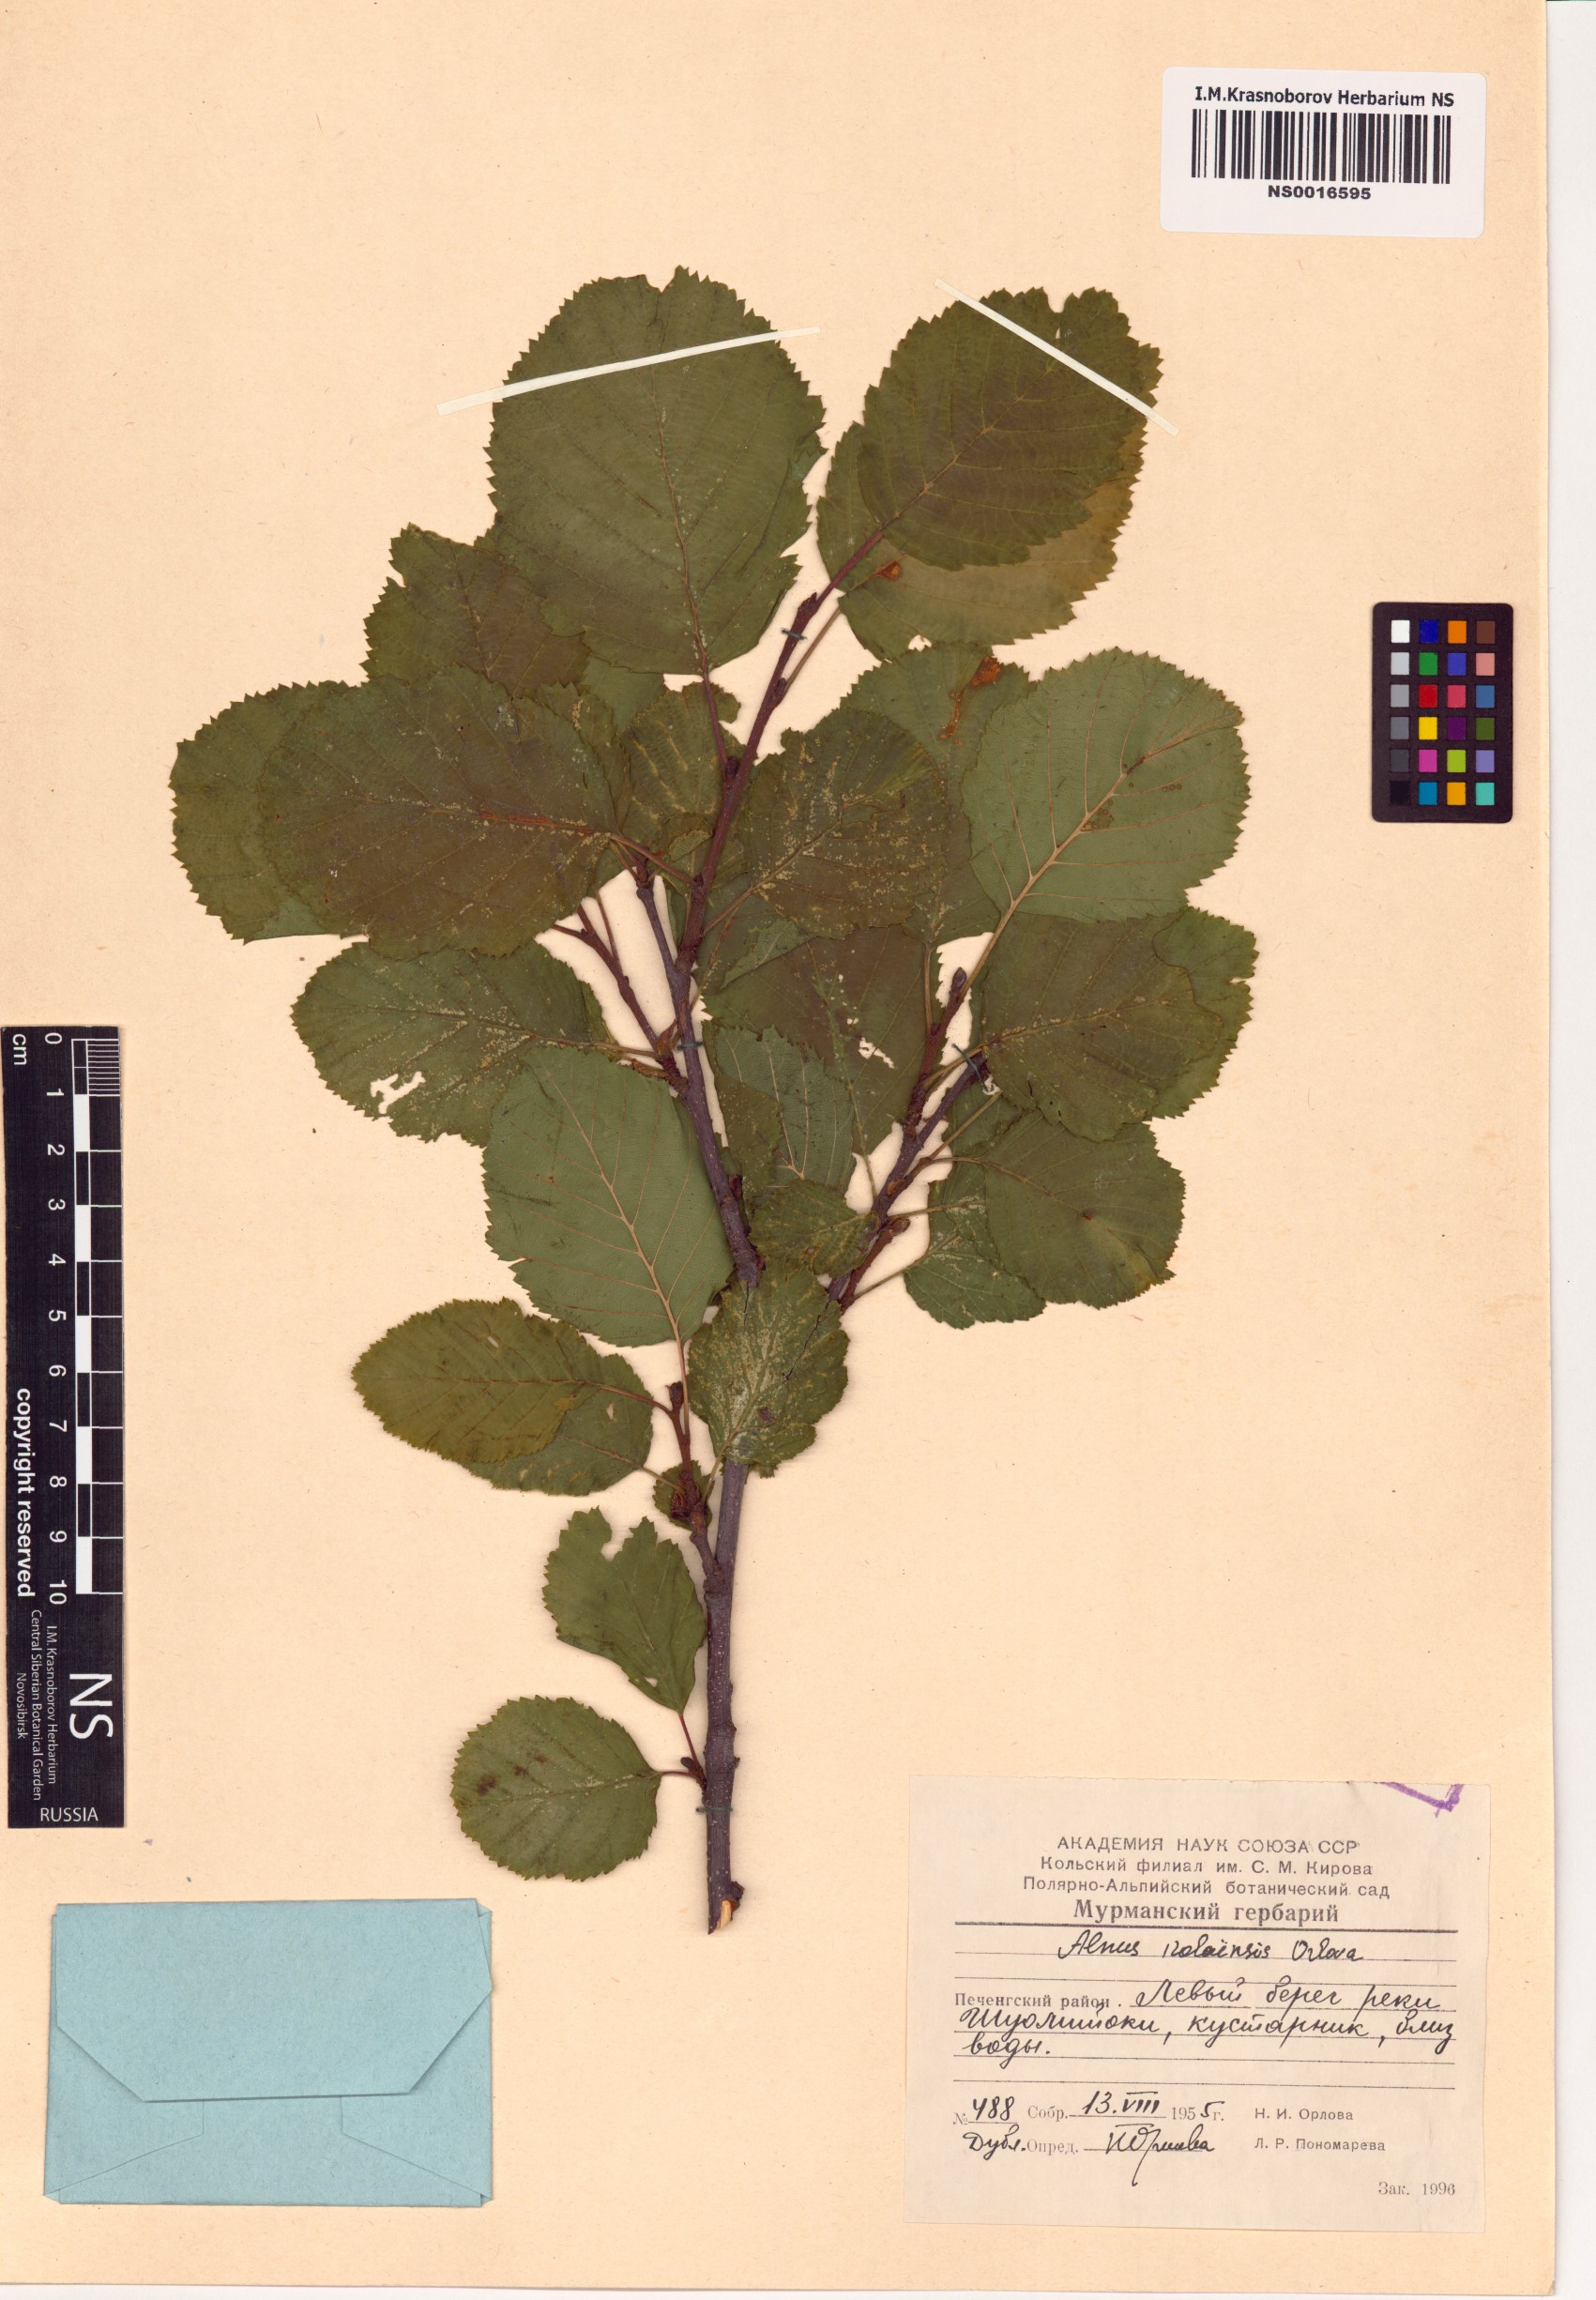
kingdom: Plantae
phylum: Tracheophyta
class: Magnoliopsida
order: Fagales
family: Betulaceae
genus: Alnus
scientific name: Alnus incana
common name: Grey alder
